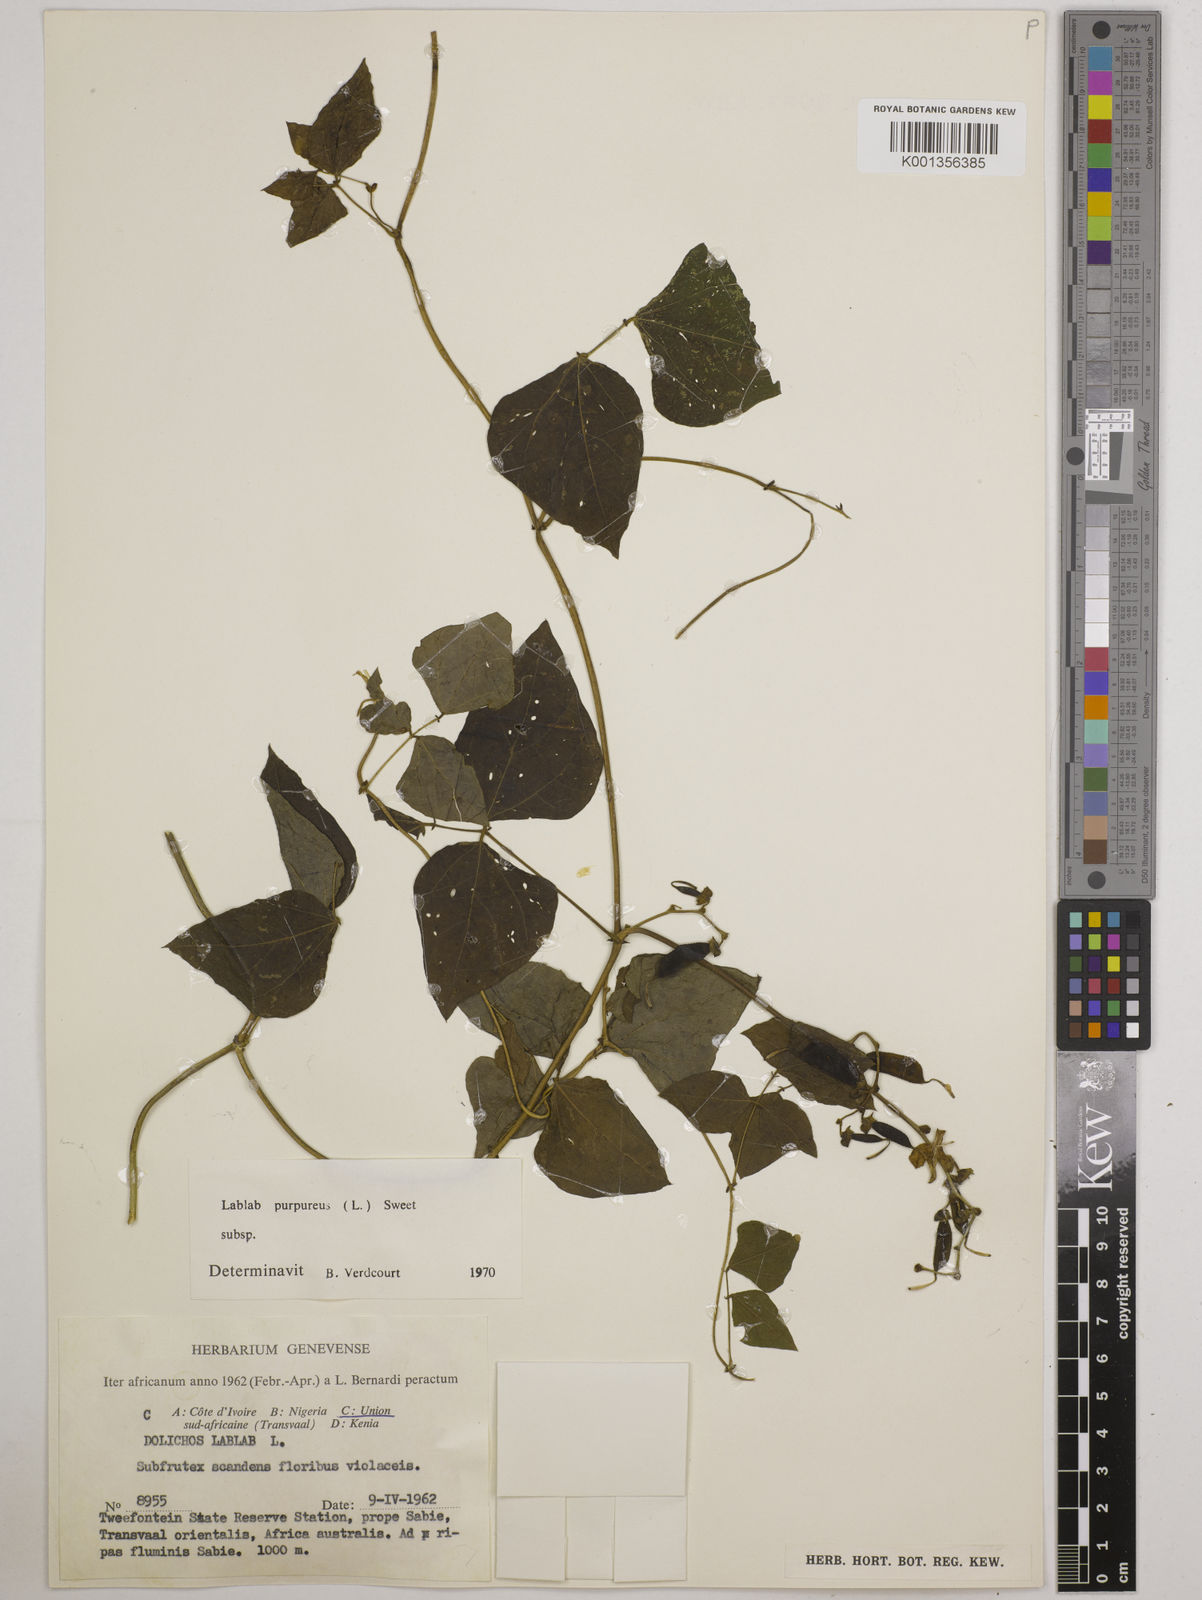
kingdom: Plantae
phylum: Tracheophyta
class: Magnoliopsida
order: Fabales
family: Fabaceae
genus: Lablab
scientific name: Lablab purpureus
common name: Lablab-bean
